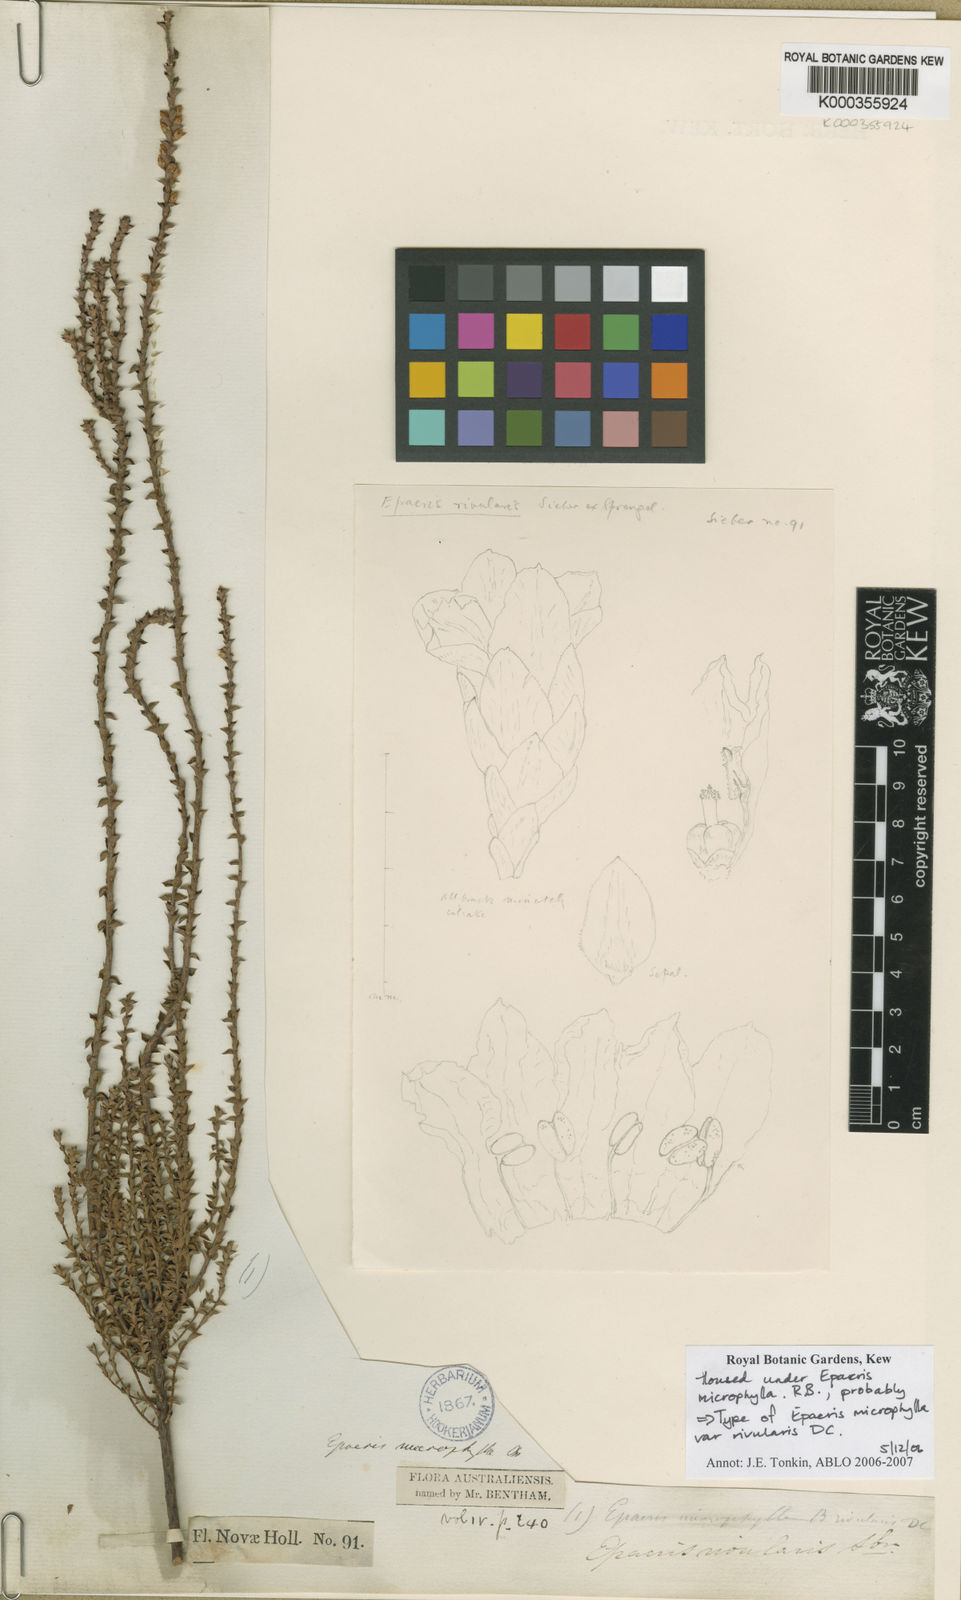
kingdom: Plantae
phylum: Tracheophyta
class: Magnoliopsida
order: Ericales
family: Ericaceae
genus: Epacris
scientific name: Epacris microphylla
